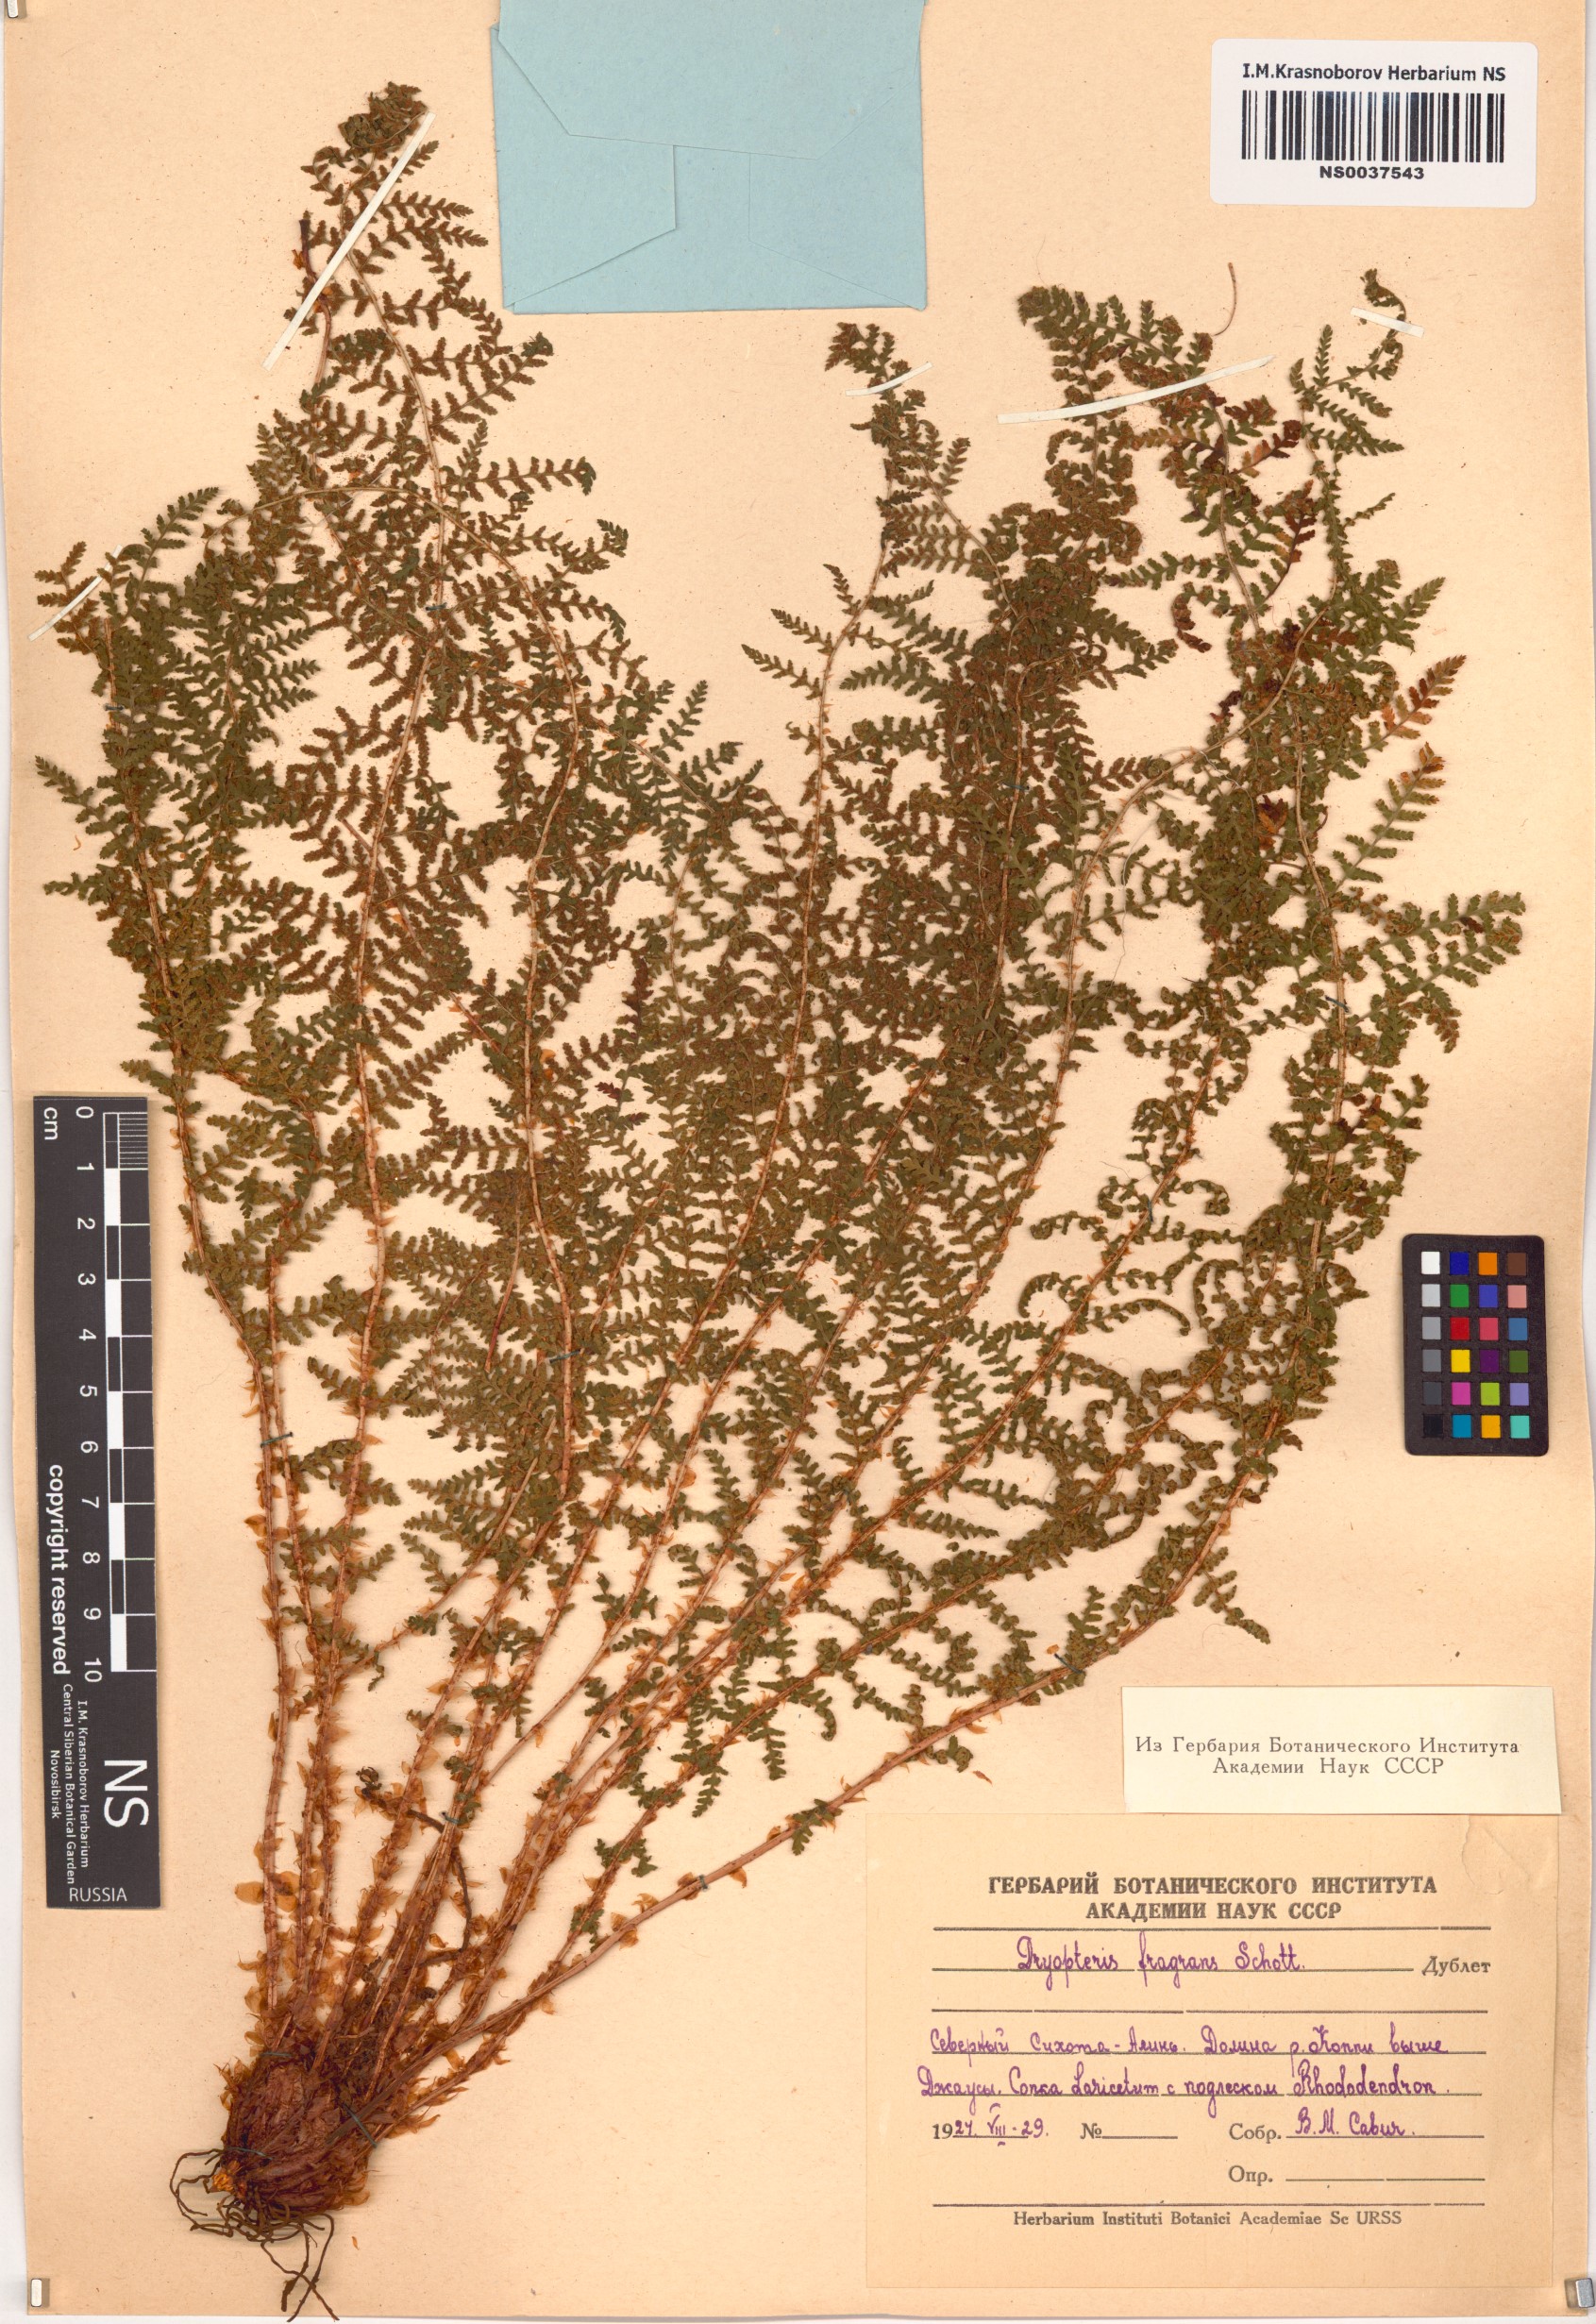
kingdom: Plantae
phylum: Tracheophyta
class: Polypodiopsida
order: Polypodiales
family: Dryopteridaceae
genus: Dryopteris
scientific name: Dryopteris fragrans
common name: Fragrant wood fern
